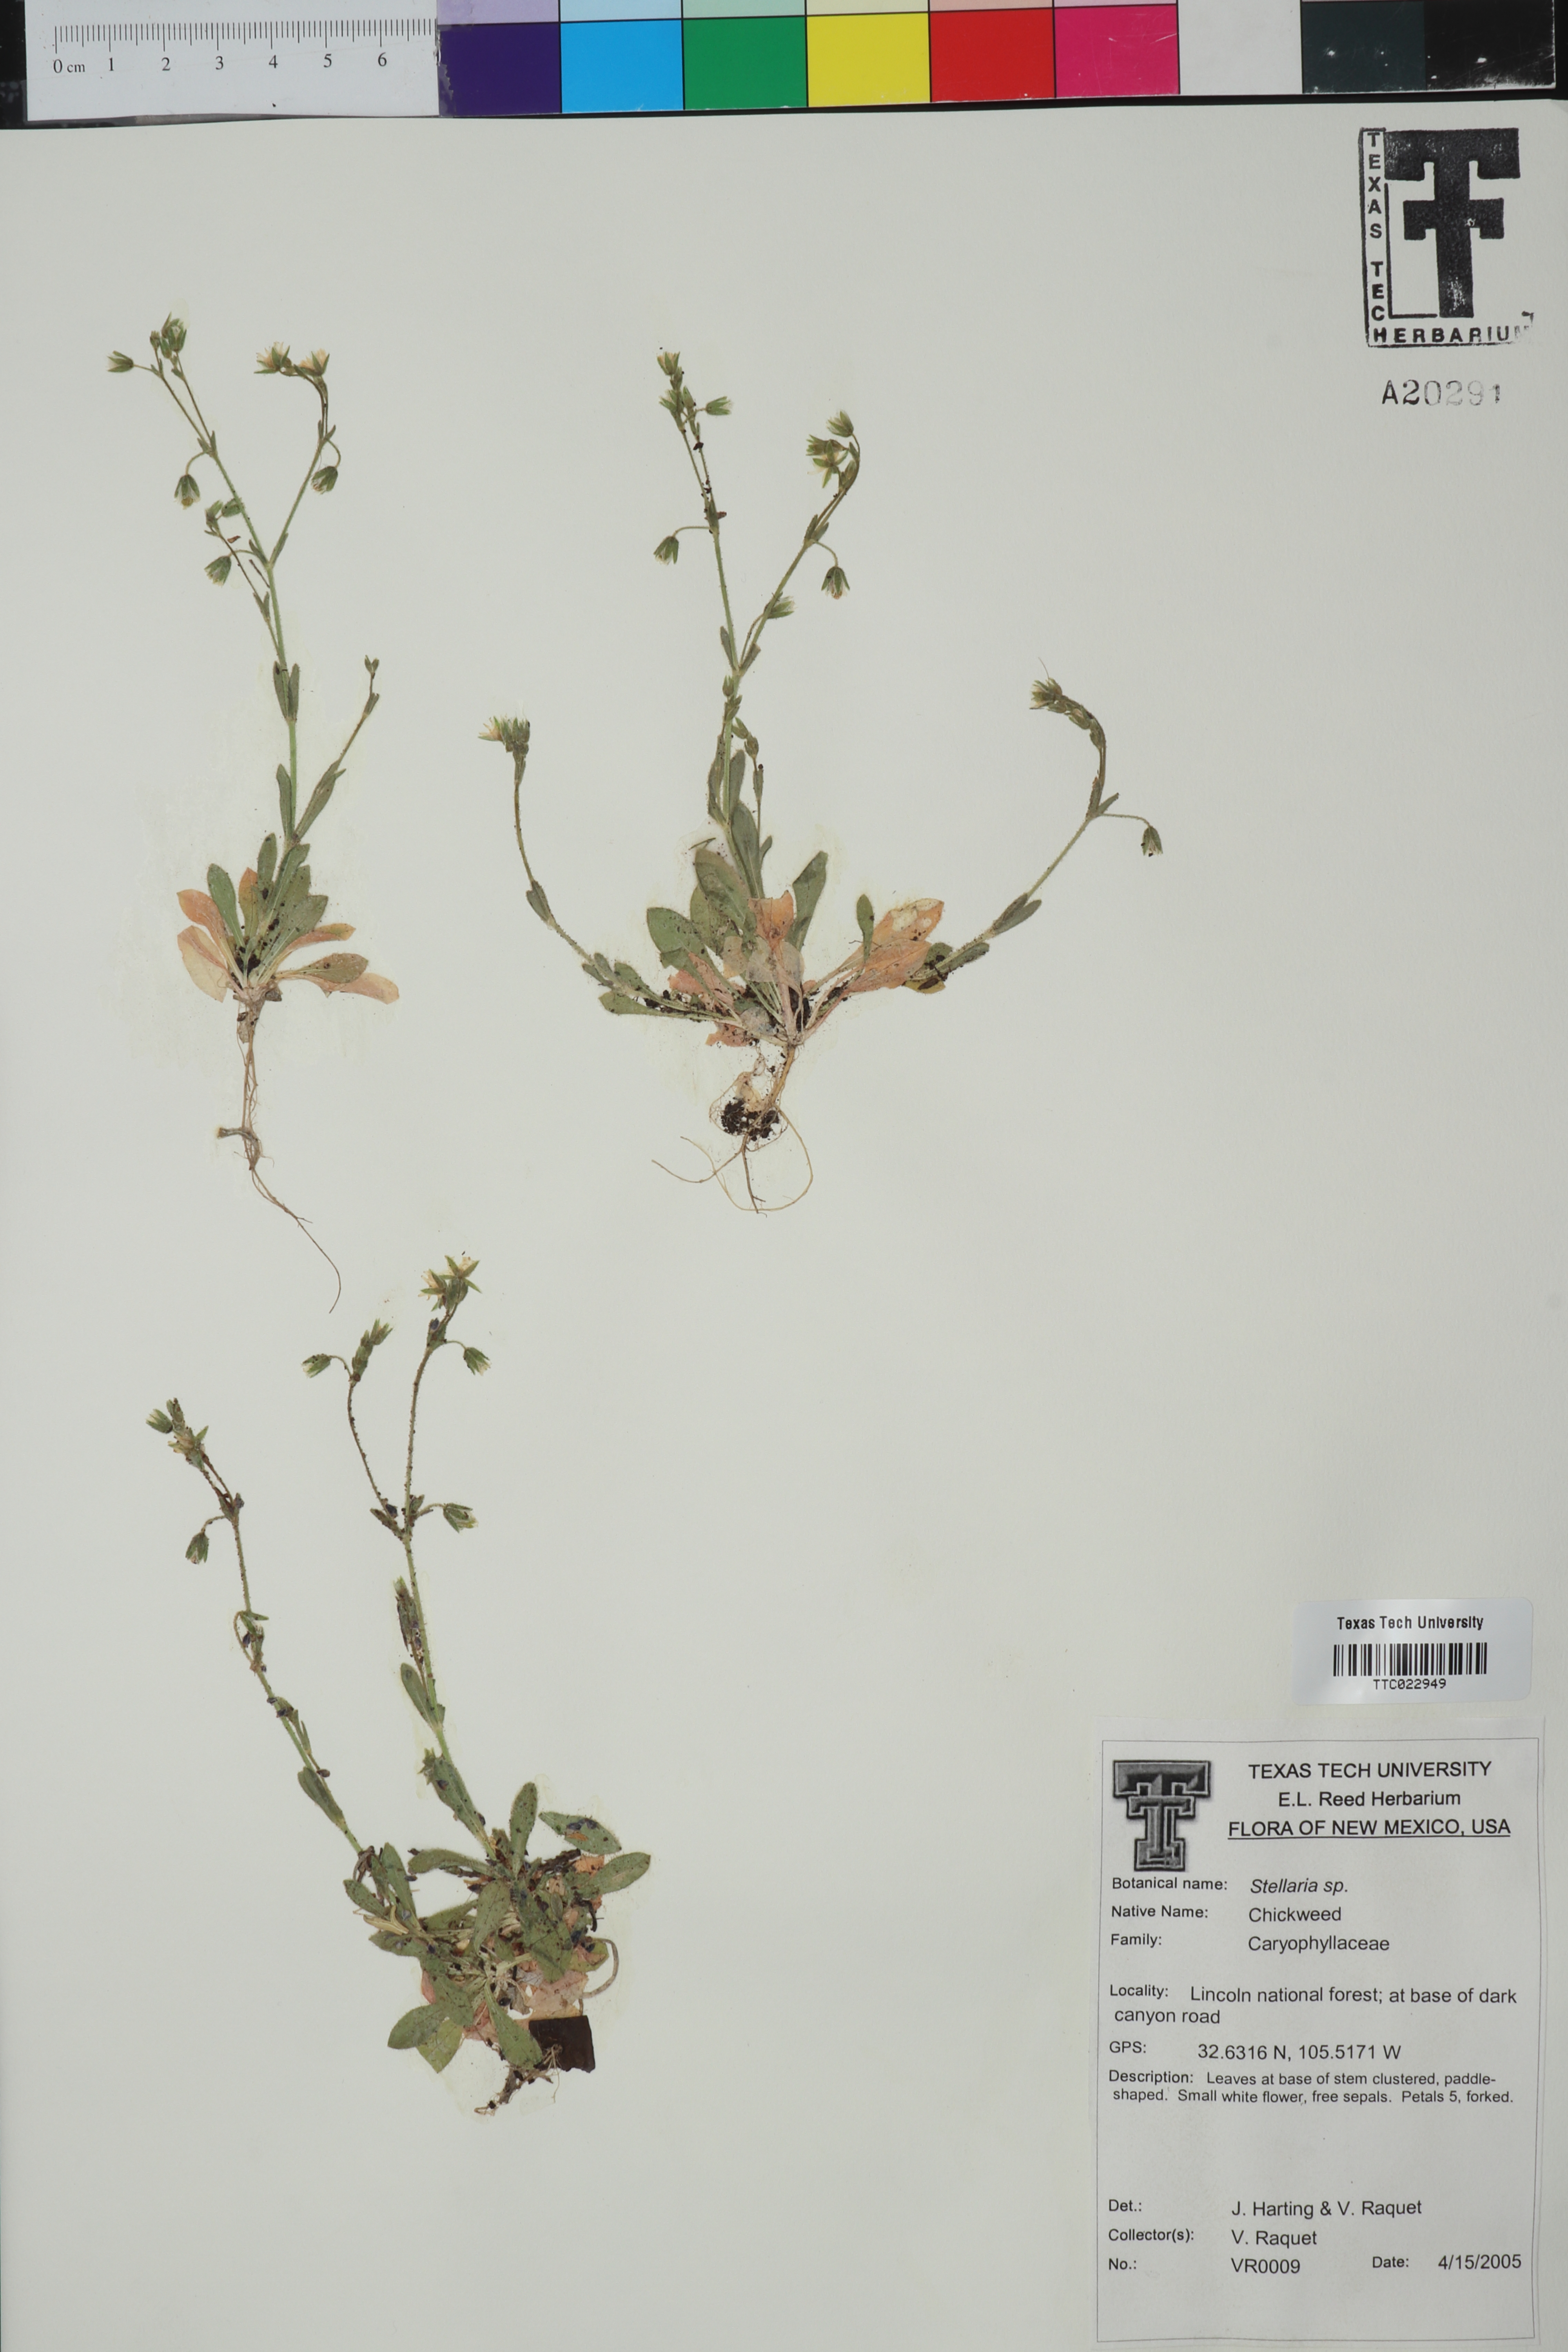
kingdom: Plantae
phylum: Tracheophyta
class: Magnoliopsida
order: Caryophyllales
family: Caryophyllaceae
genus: Stellaria
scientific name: Stellaria
